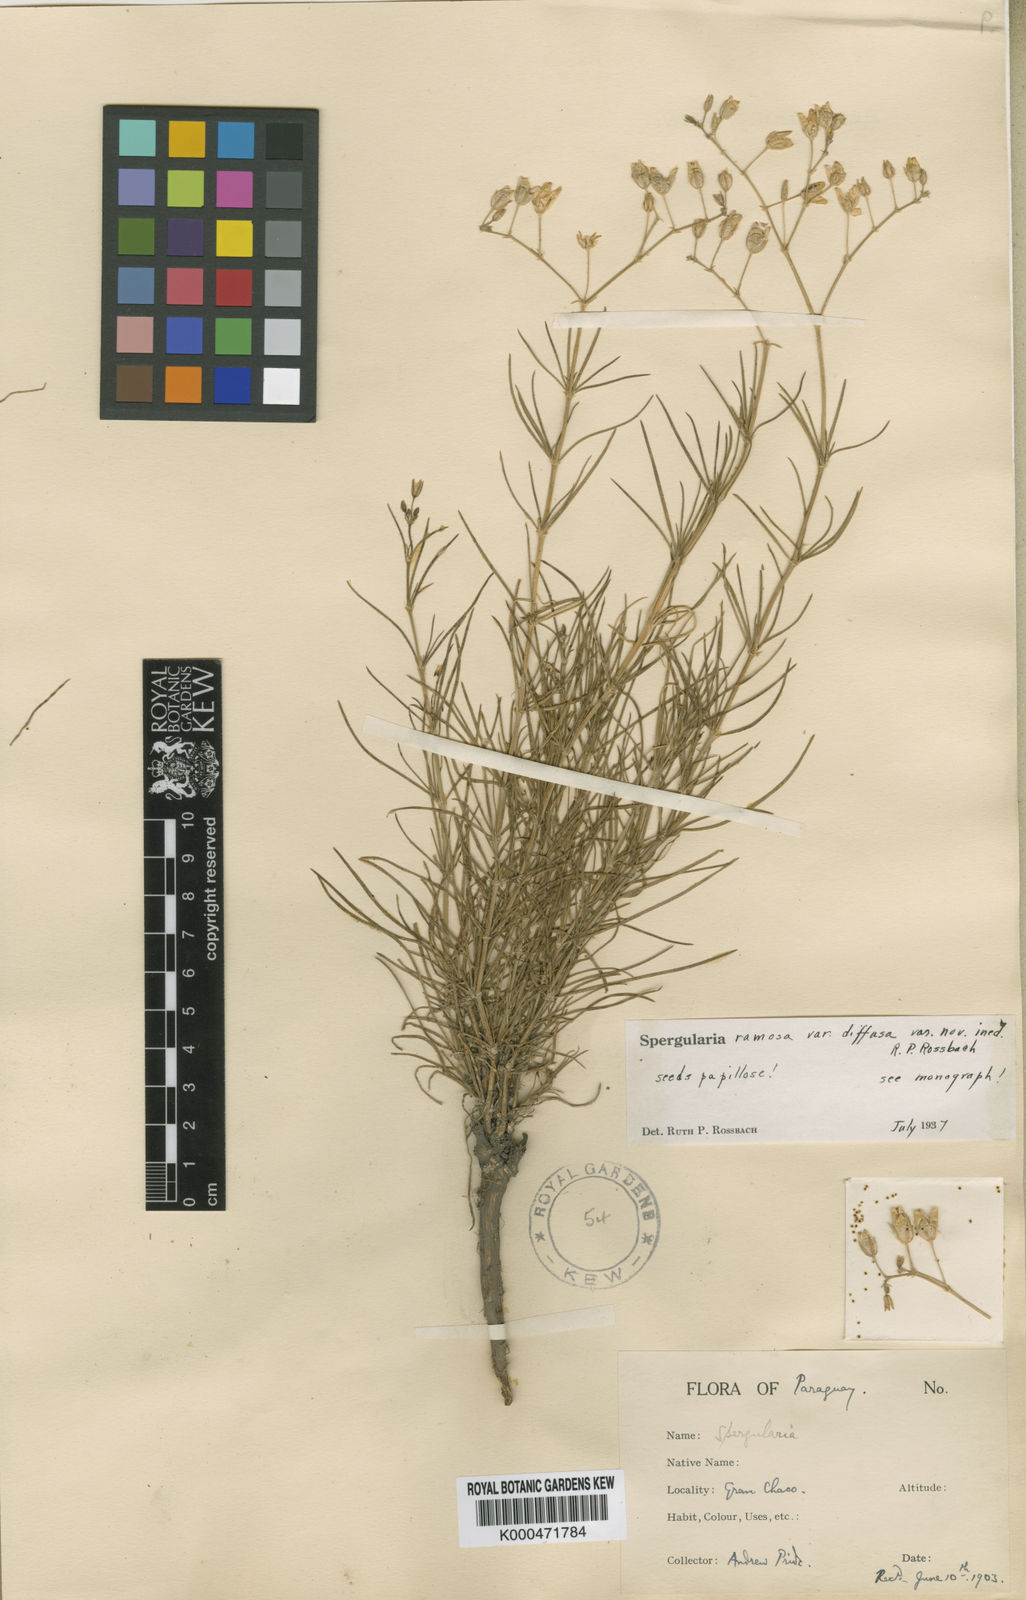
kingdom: Plantae
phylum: Tracheophyta
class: Magnoliopsida
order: Caryophyllales
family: Caryophyllaceae
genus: Spergula
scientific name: Spergula ramosa
